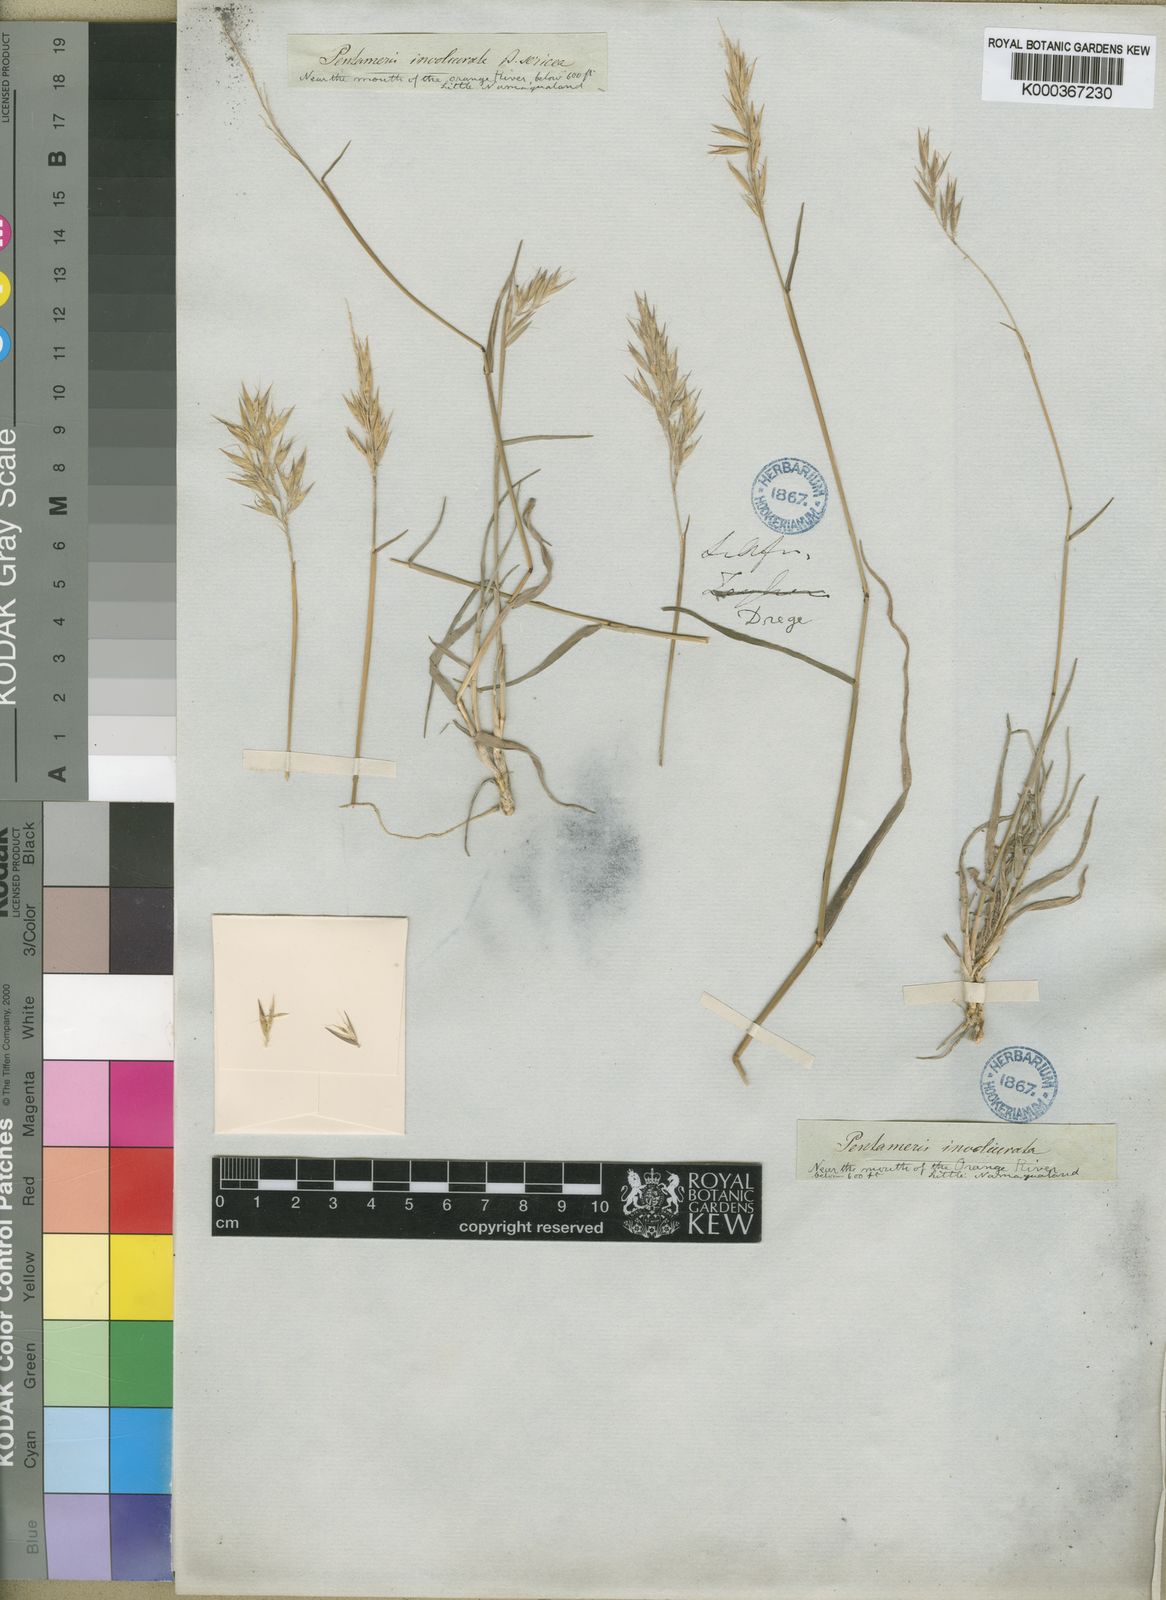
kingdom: Plantae
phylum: Tracheophyta
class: Liliopsida
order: Poales
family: Poaceae
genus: Chaetobromus
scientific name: Chaetobromus involucratus
